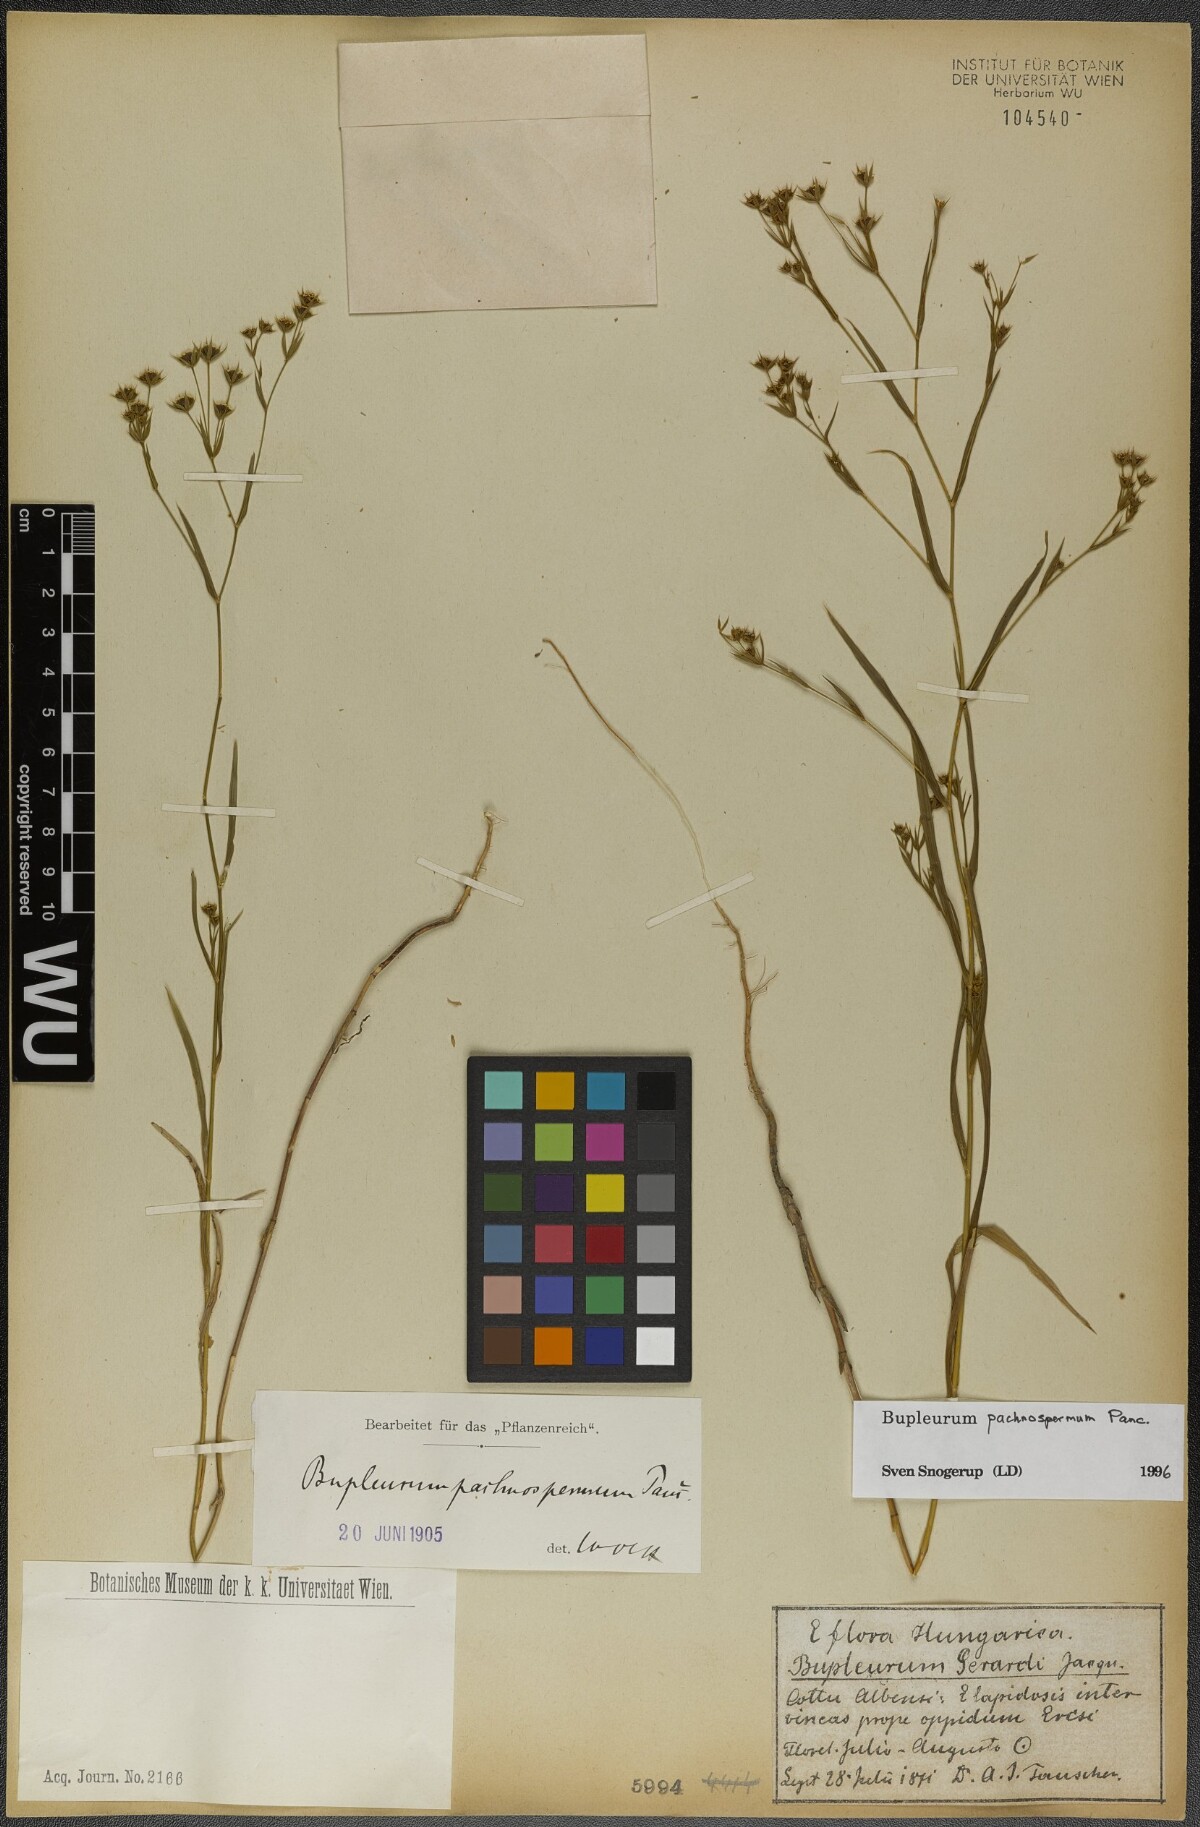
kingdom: Plantae
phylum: Tracheophyta
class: Magnoliopsida
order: Apiales
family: Apiaceae
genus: Bupleurum
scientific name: Bupleurum pachnospermum
